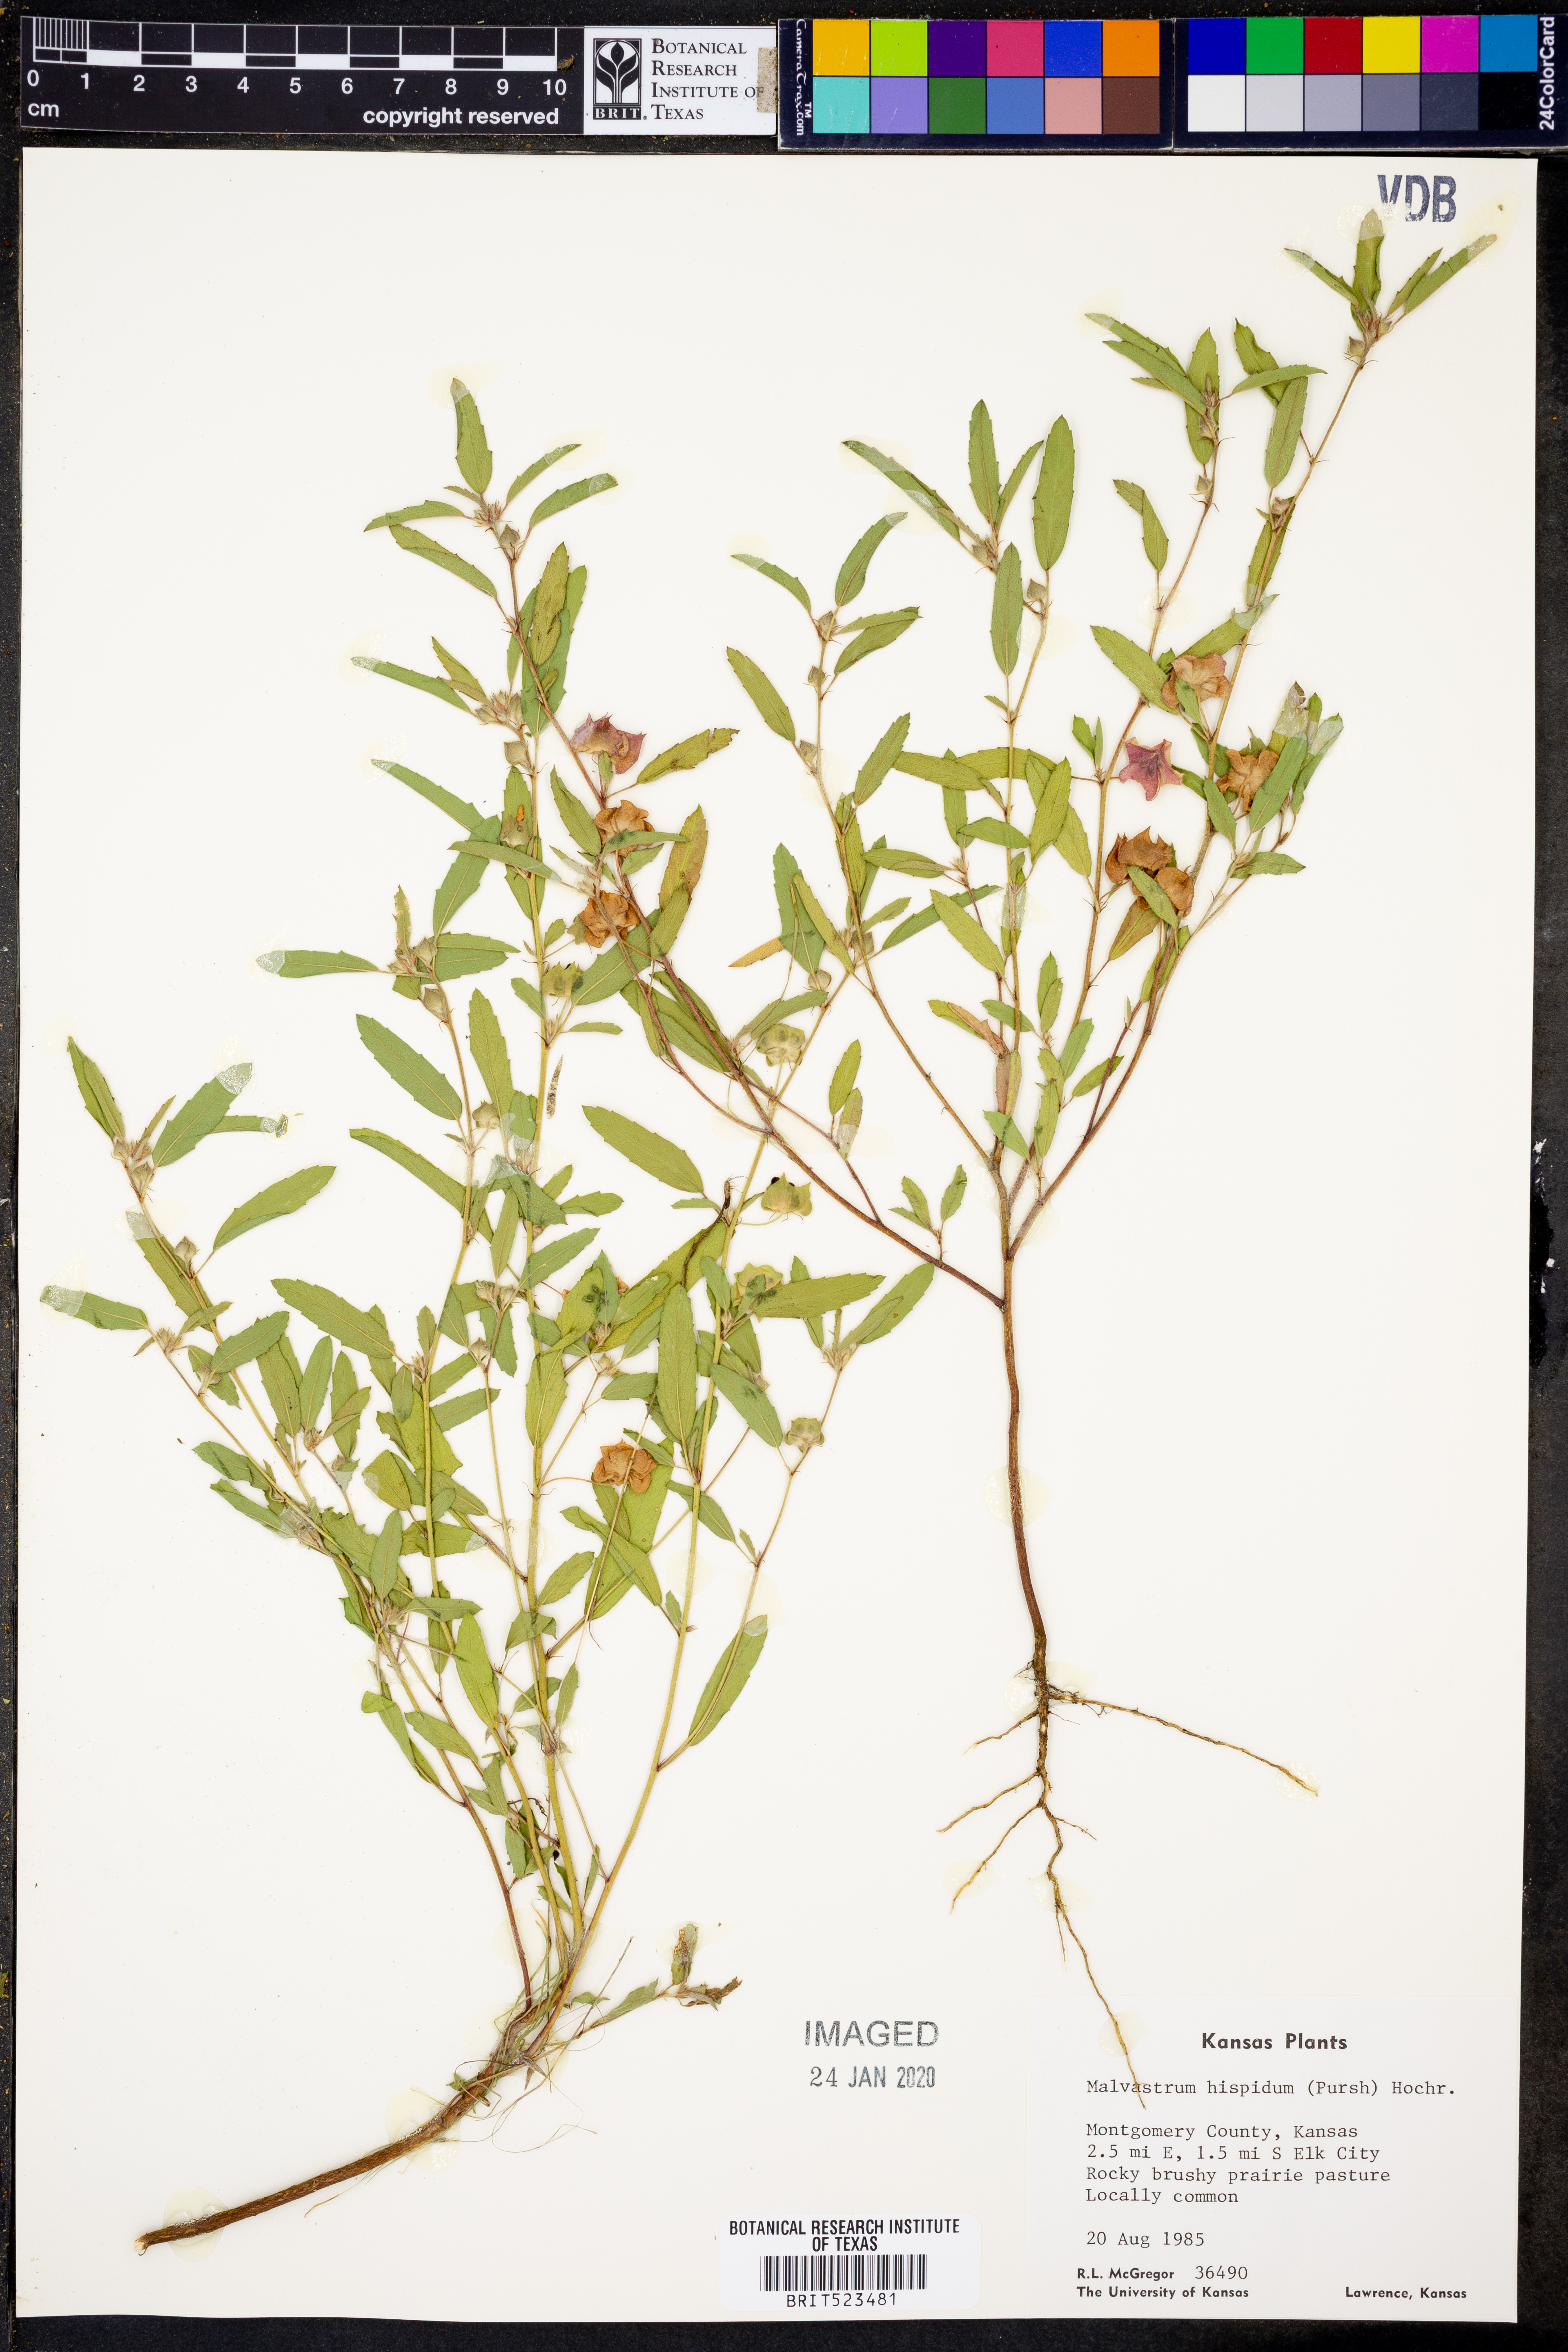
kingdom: Plantae
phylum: Tracheophyta
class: Magnoliopsida
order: Malvales
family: Malvaceae
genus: Malvastrum
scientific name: Malvastrum hispidum
